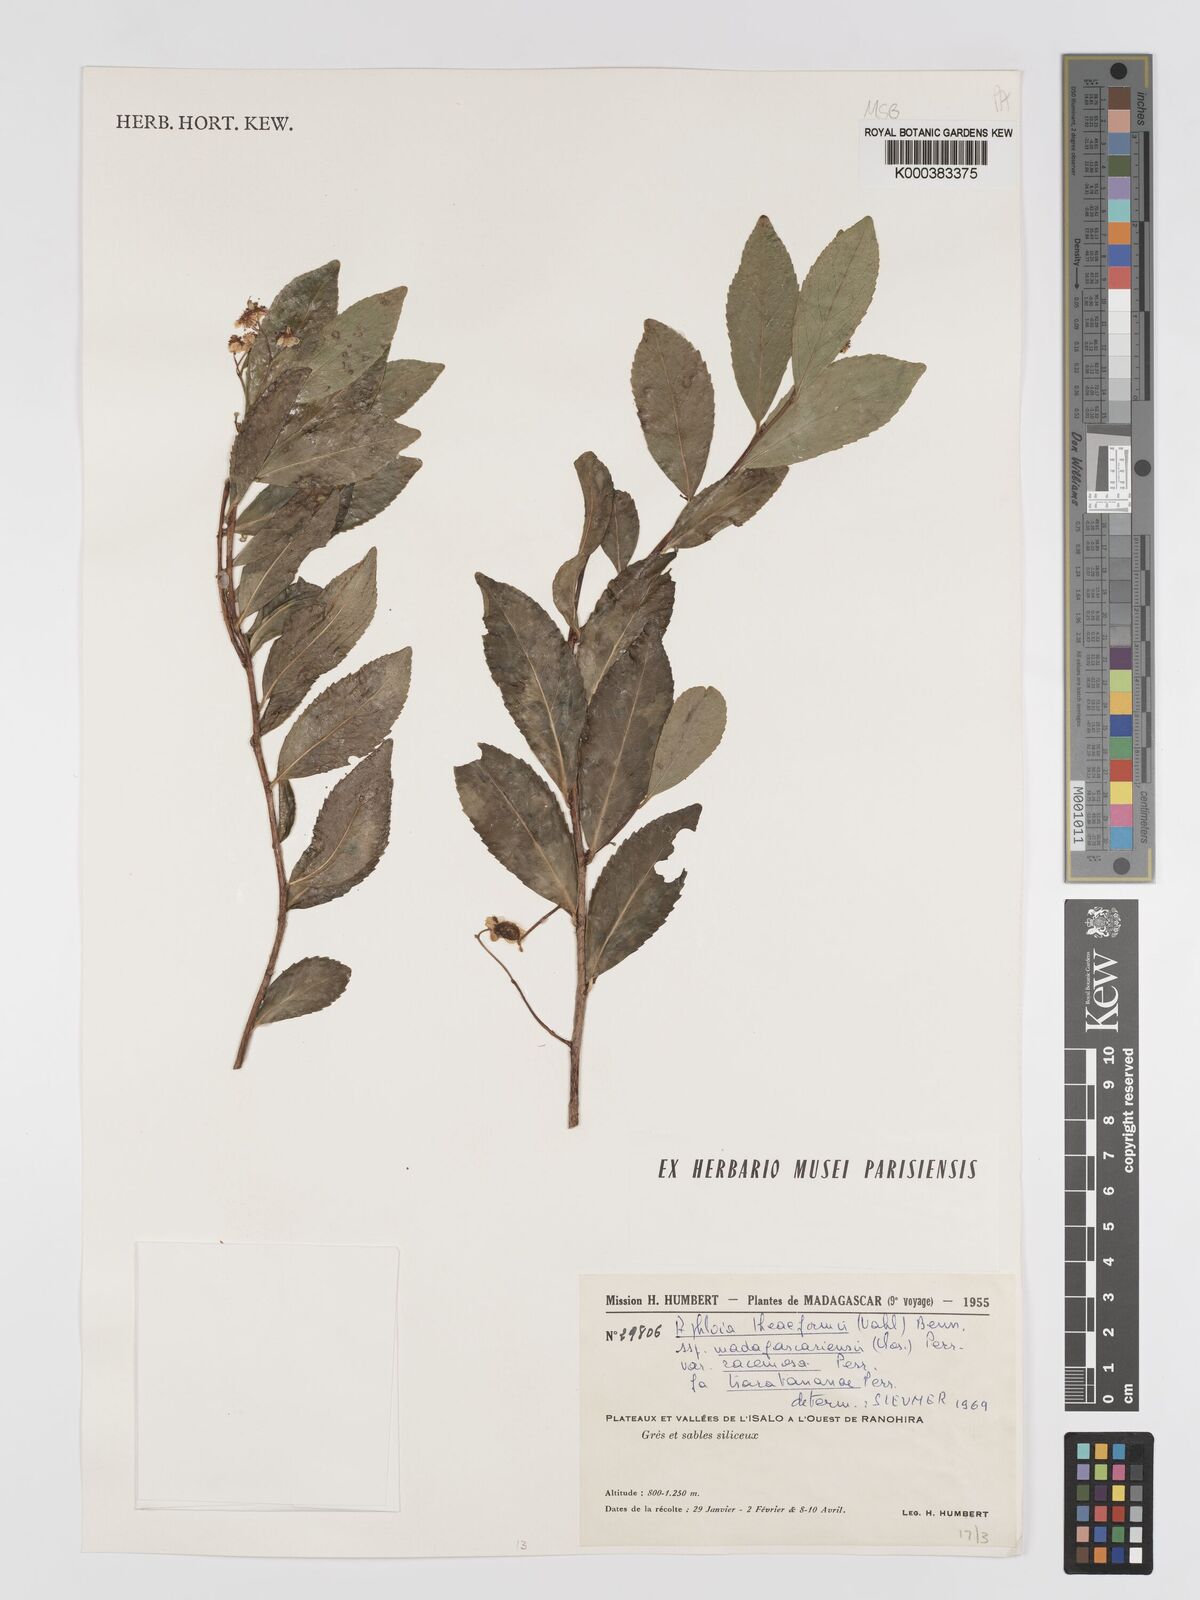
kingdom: Plantae
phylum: Tracheophyta
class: Magnoliopsida
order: Crossosomatales
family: Aphloiaceae
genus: Aphloia
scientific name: Aphloia theiformis
